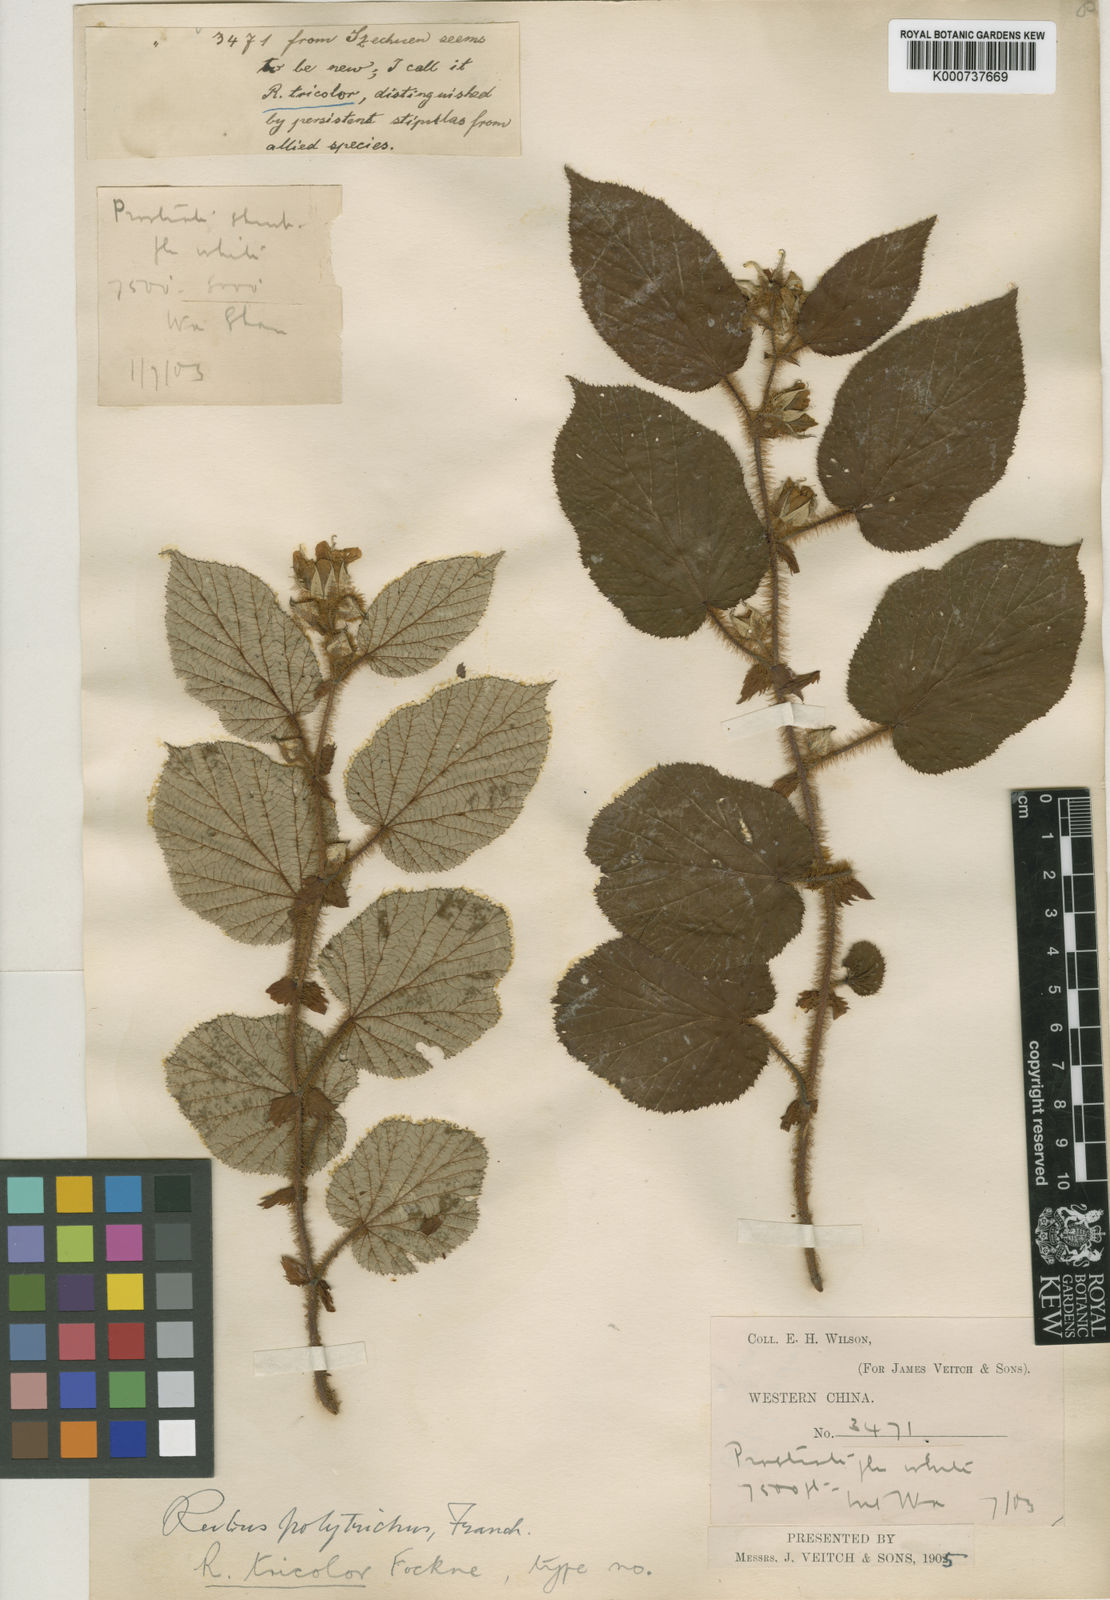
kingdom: Plantae
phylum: Tracheophyta
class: Magnoliopsida
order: Rosales
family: Rosaceae
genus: Rubus
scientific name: Rubus
